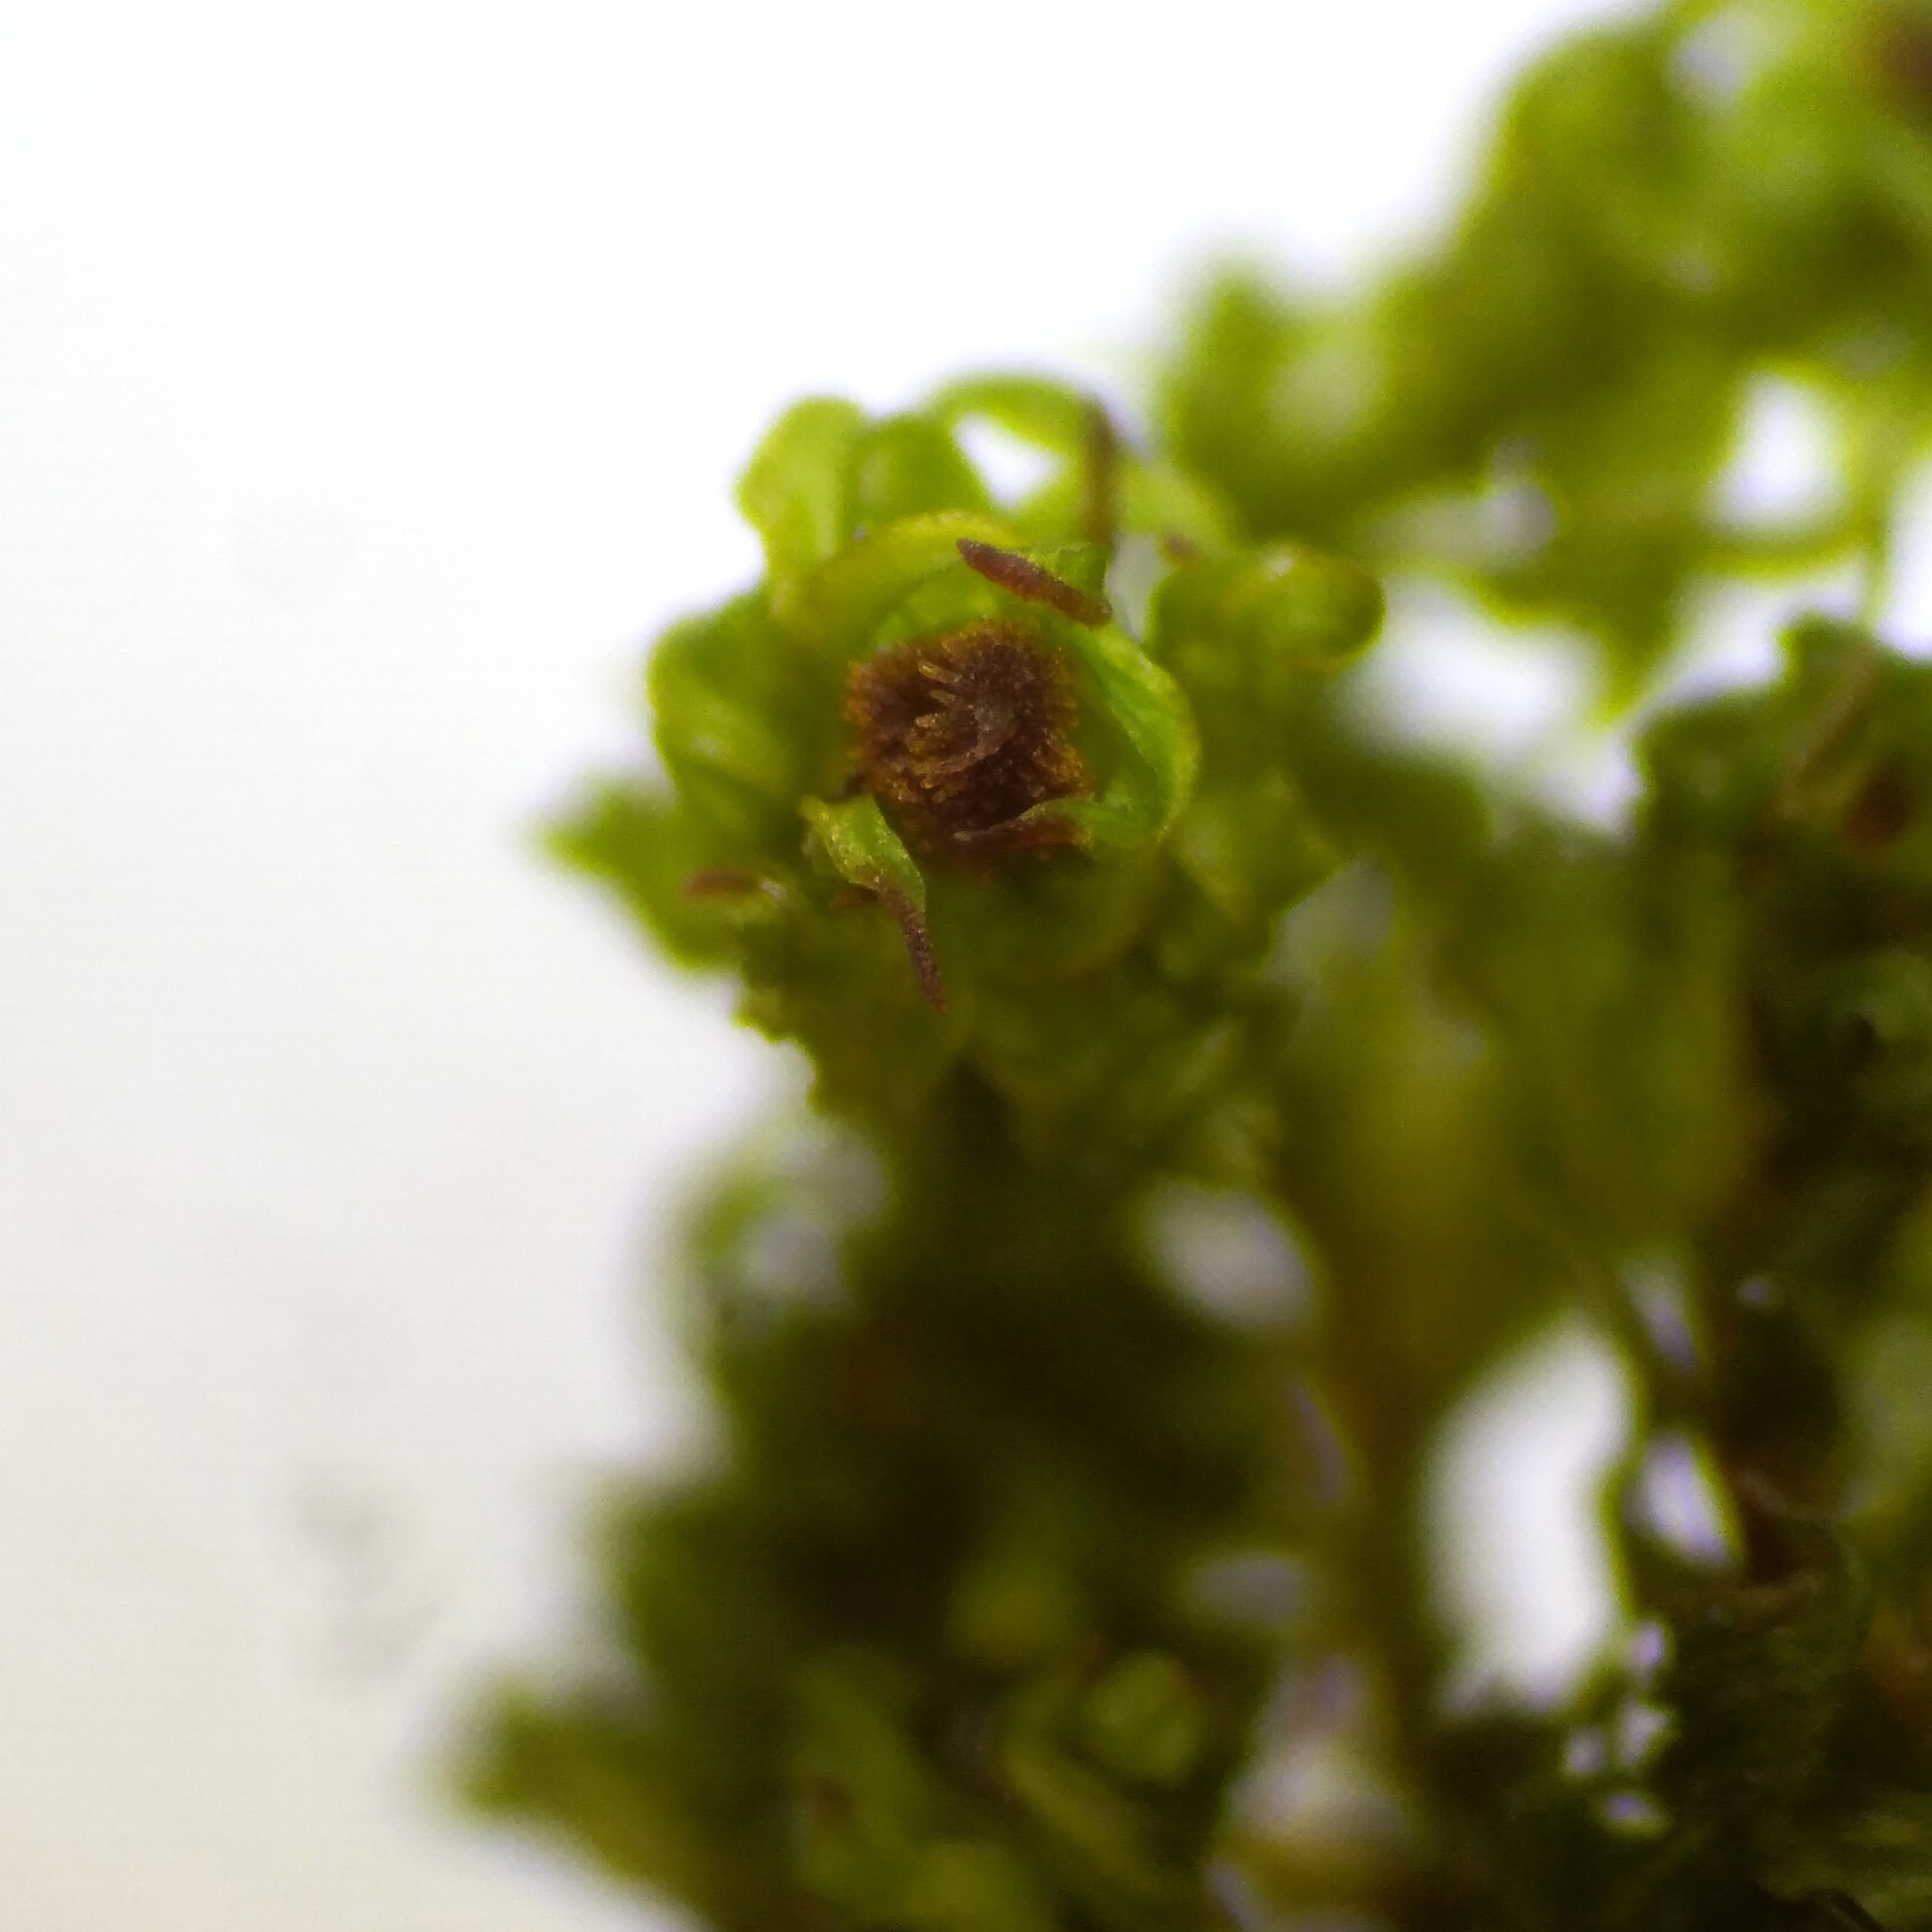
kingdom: Plantae
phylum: Bryophyta
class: Bryopsida
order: Orthotrichales
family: Orthotrichaceae
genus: Plenogemma
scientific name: Plenogemma phyllantha
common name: Stor låddenhætte
